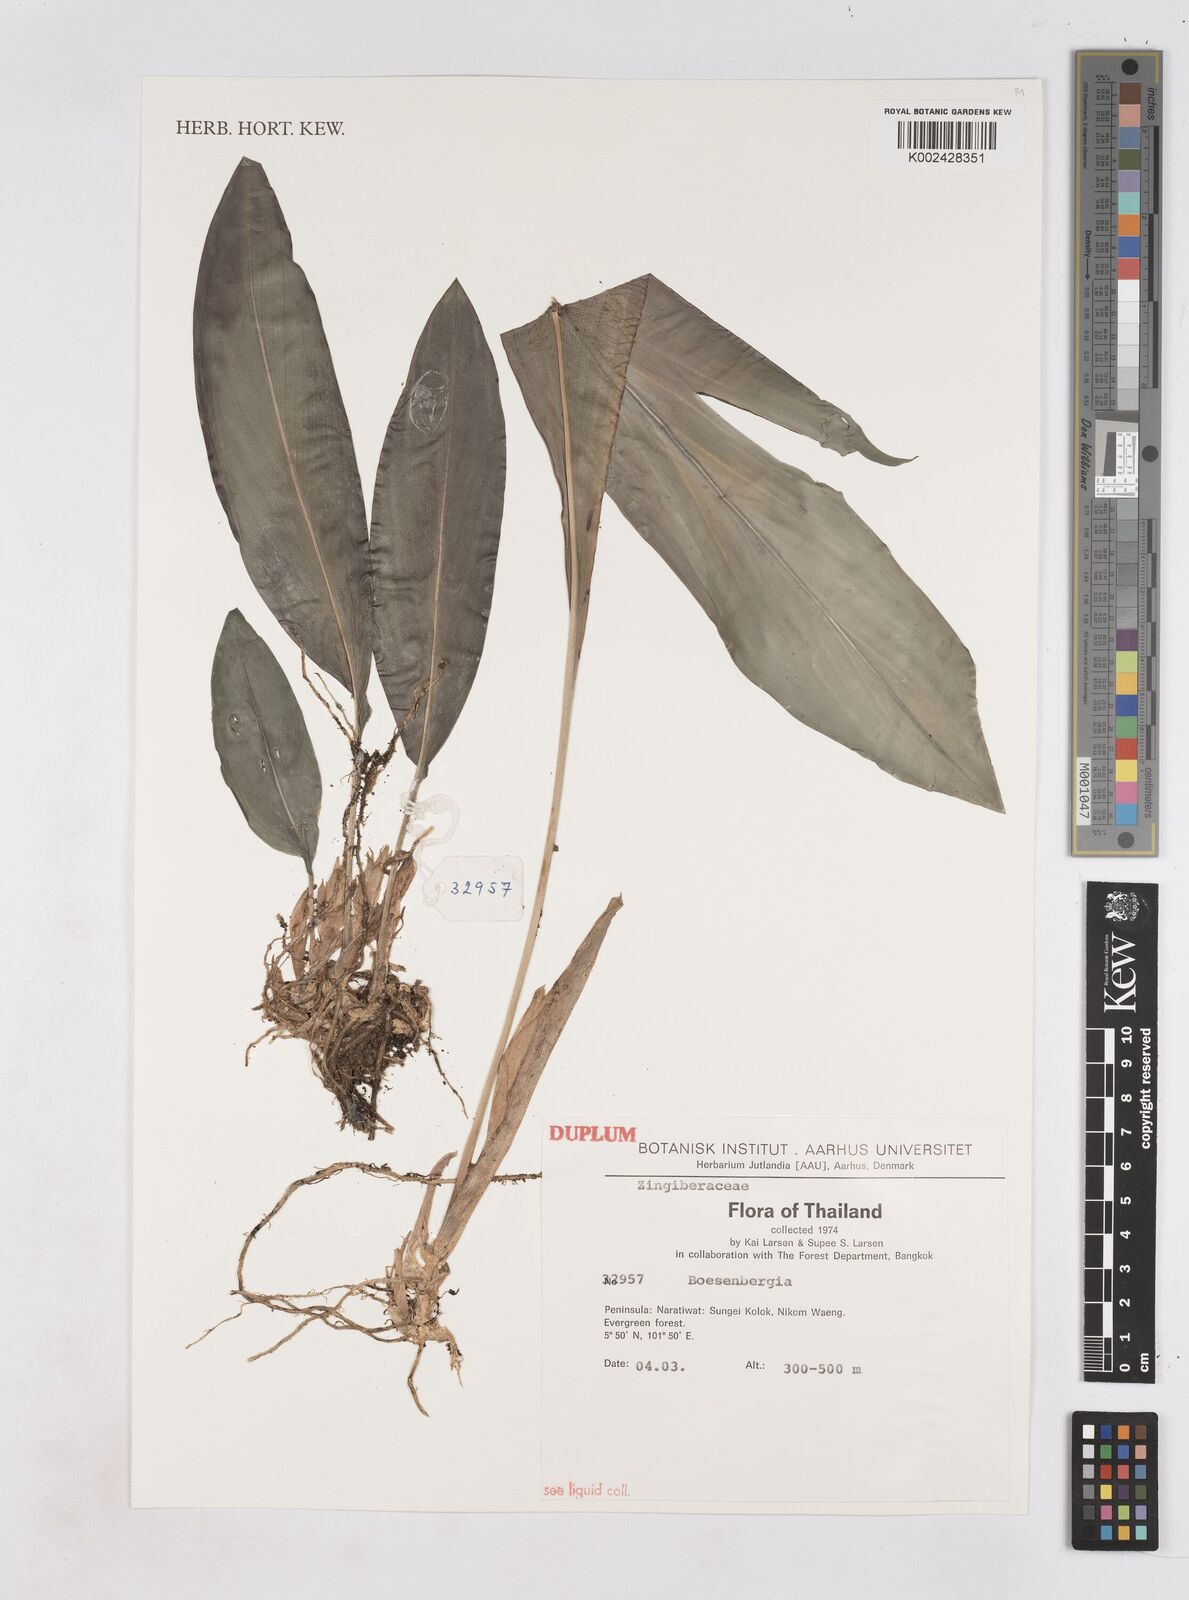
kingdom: Plantae
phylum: Tracheophyta
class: Liliopsida
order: Zingiberales
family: Zingiberaceae
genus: Boesenbergia
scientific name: Boesenbergia
